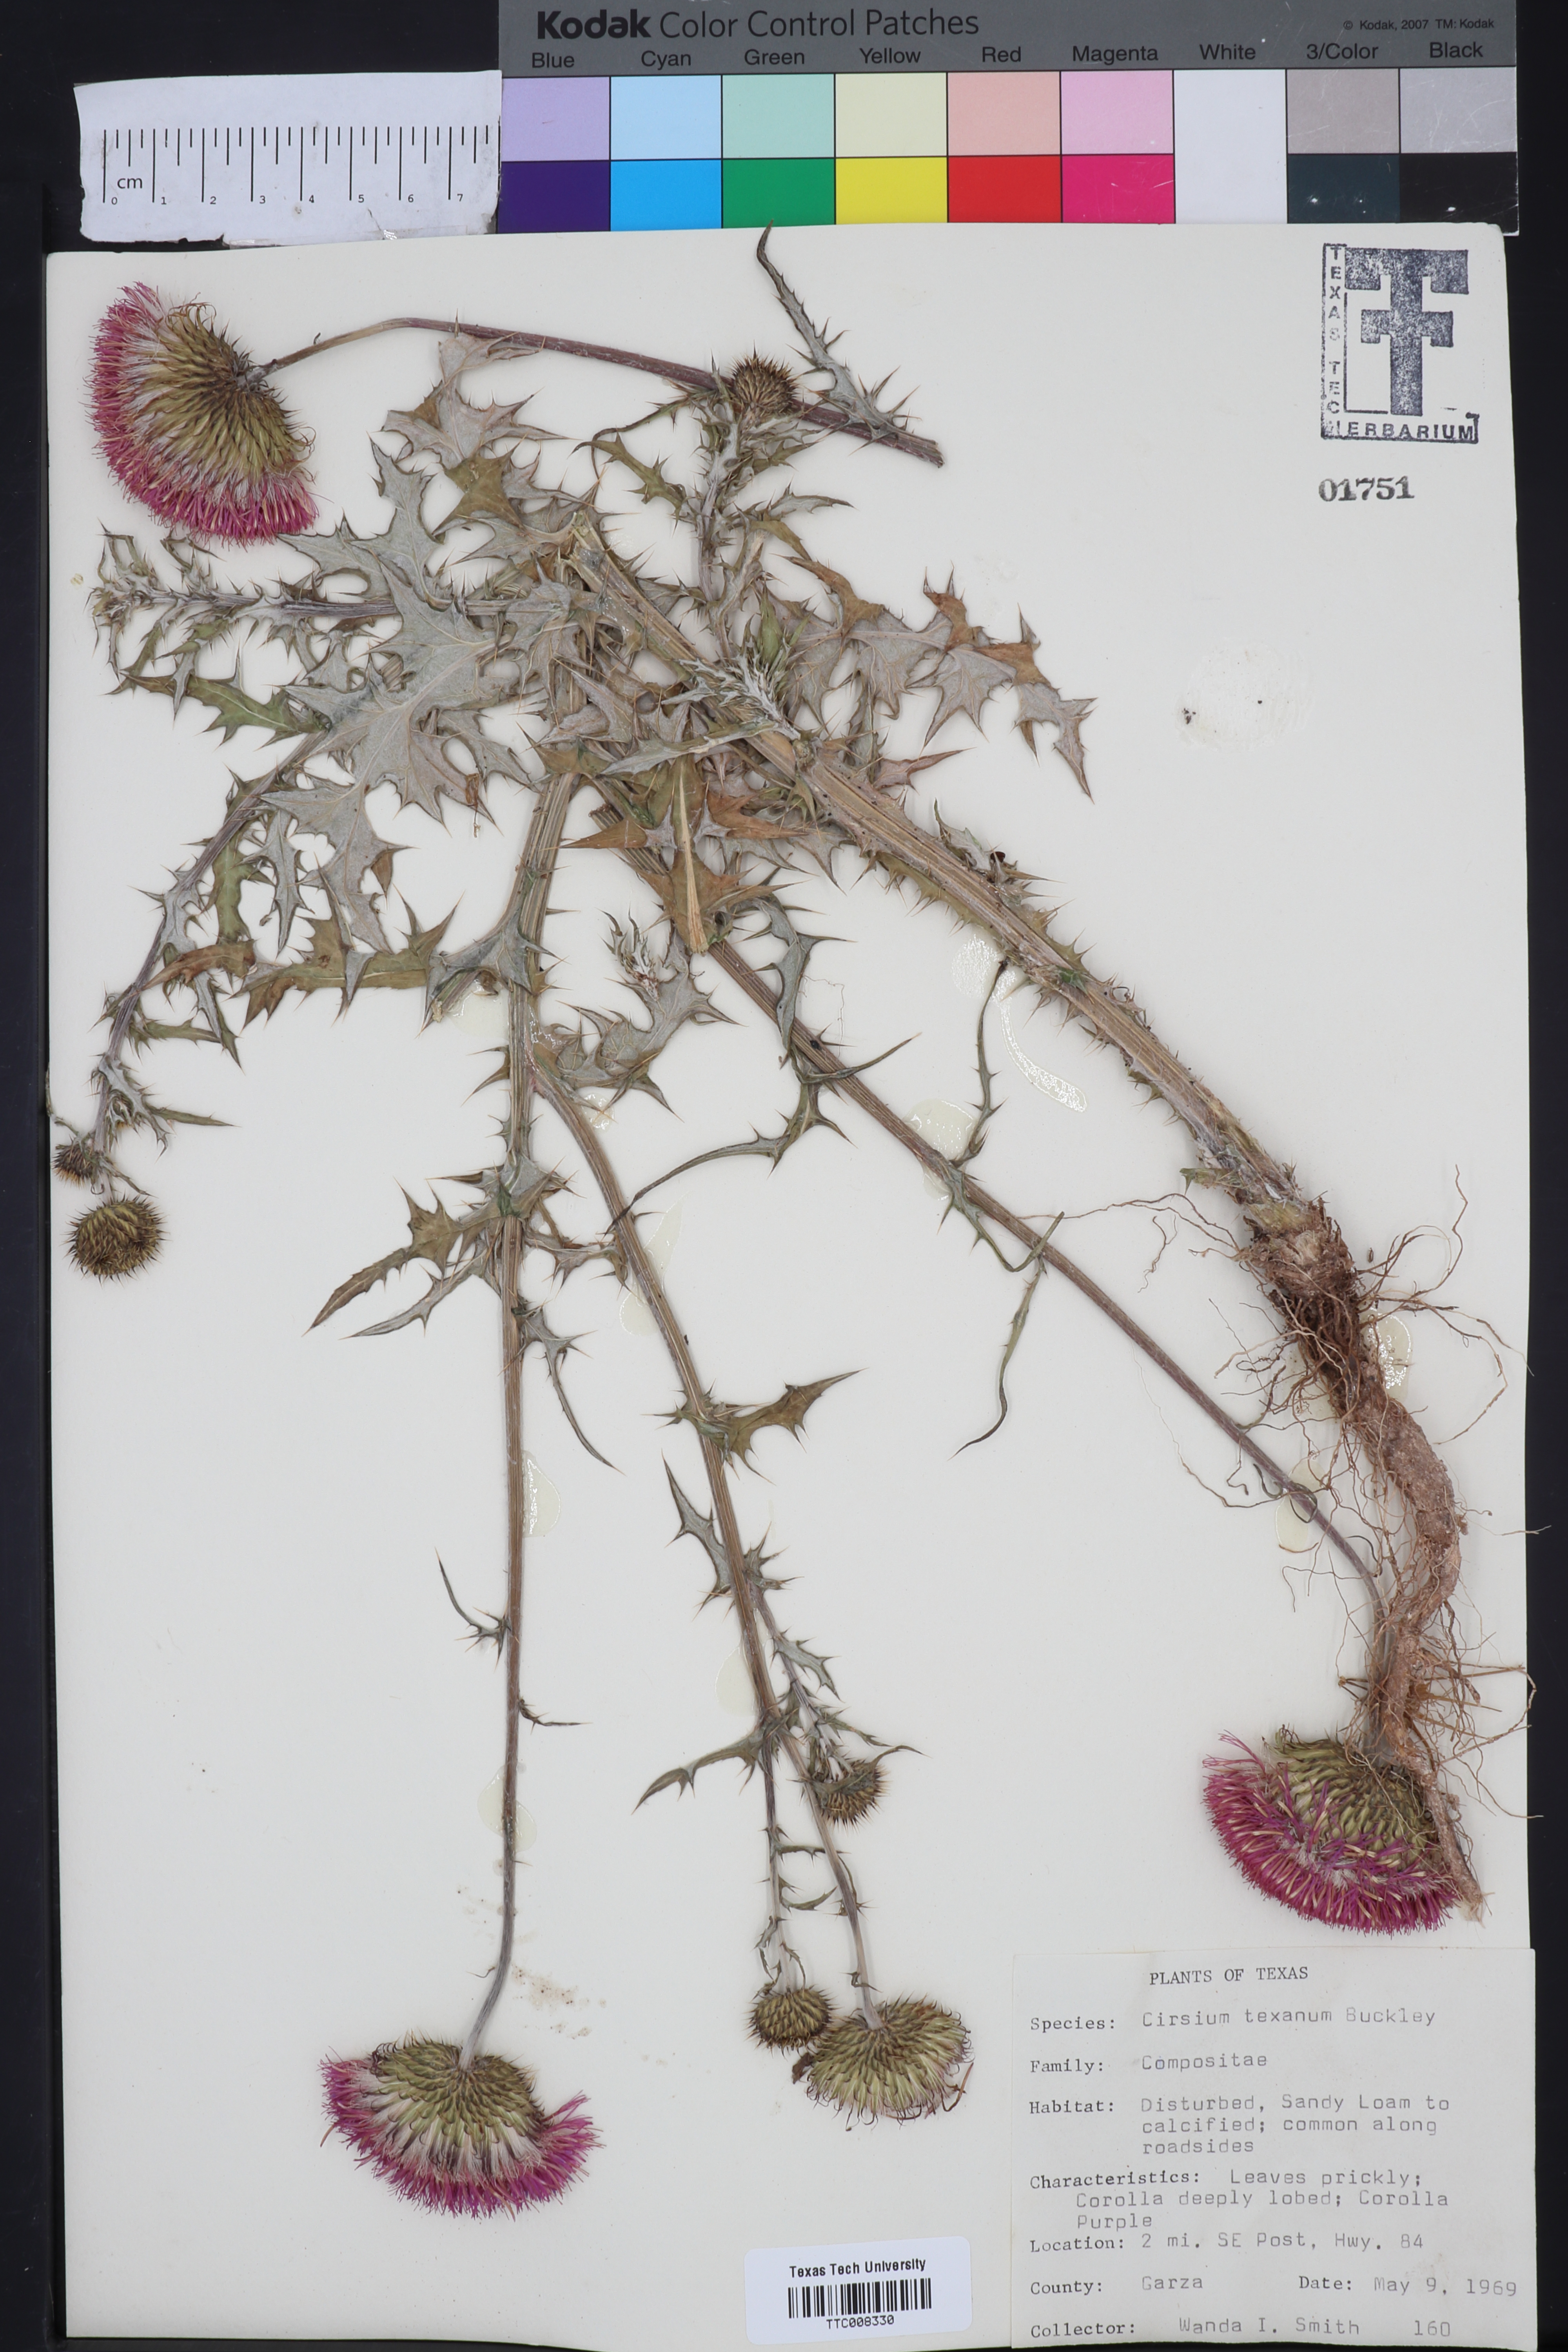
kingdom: Plantae
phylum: Tracheophyta
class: Magnoliopsida
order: Asterales
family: Asteraceae
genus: Cirsium
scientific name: Cirsium texanum
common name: Texas purple thistle
